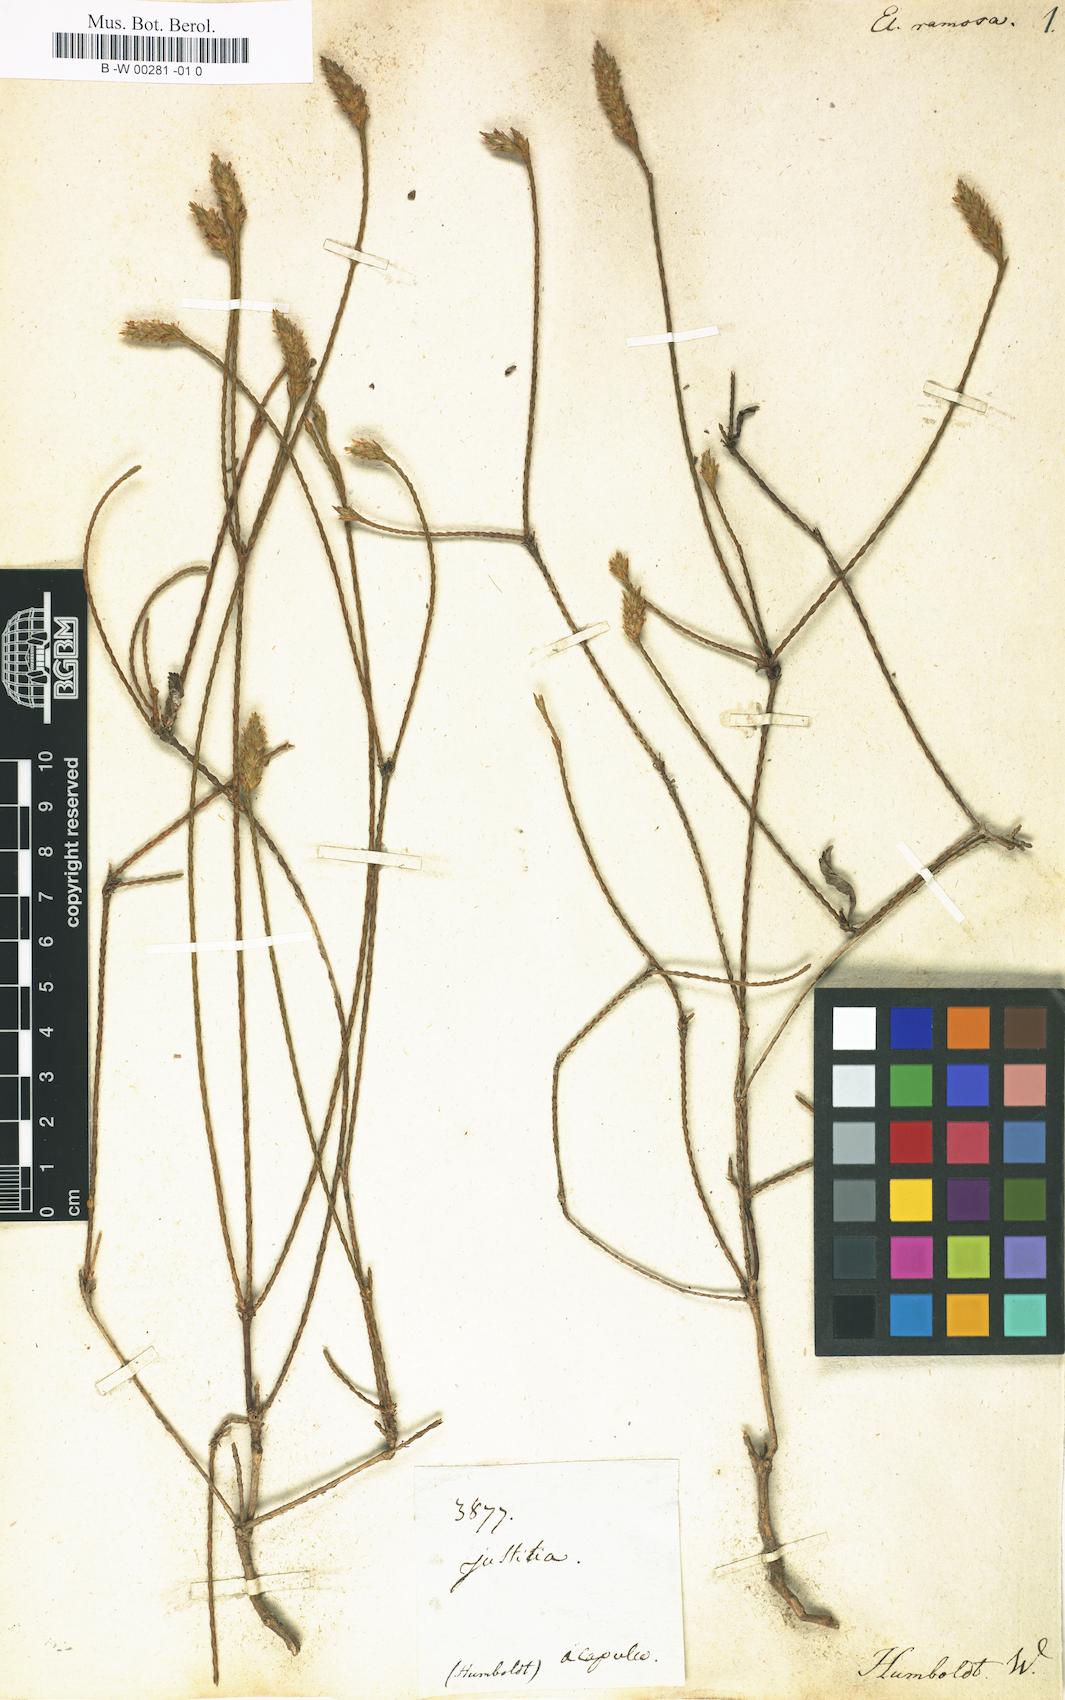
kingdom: Plantae
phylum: Tracheophyta
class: Magnoliopsida
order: Lamiales
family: Acanthaceae
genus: Elytraria
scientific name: Elytraria imbricata
